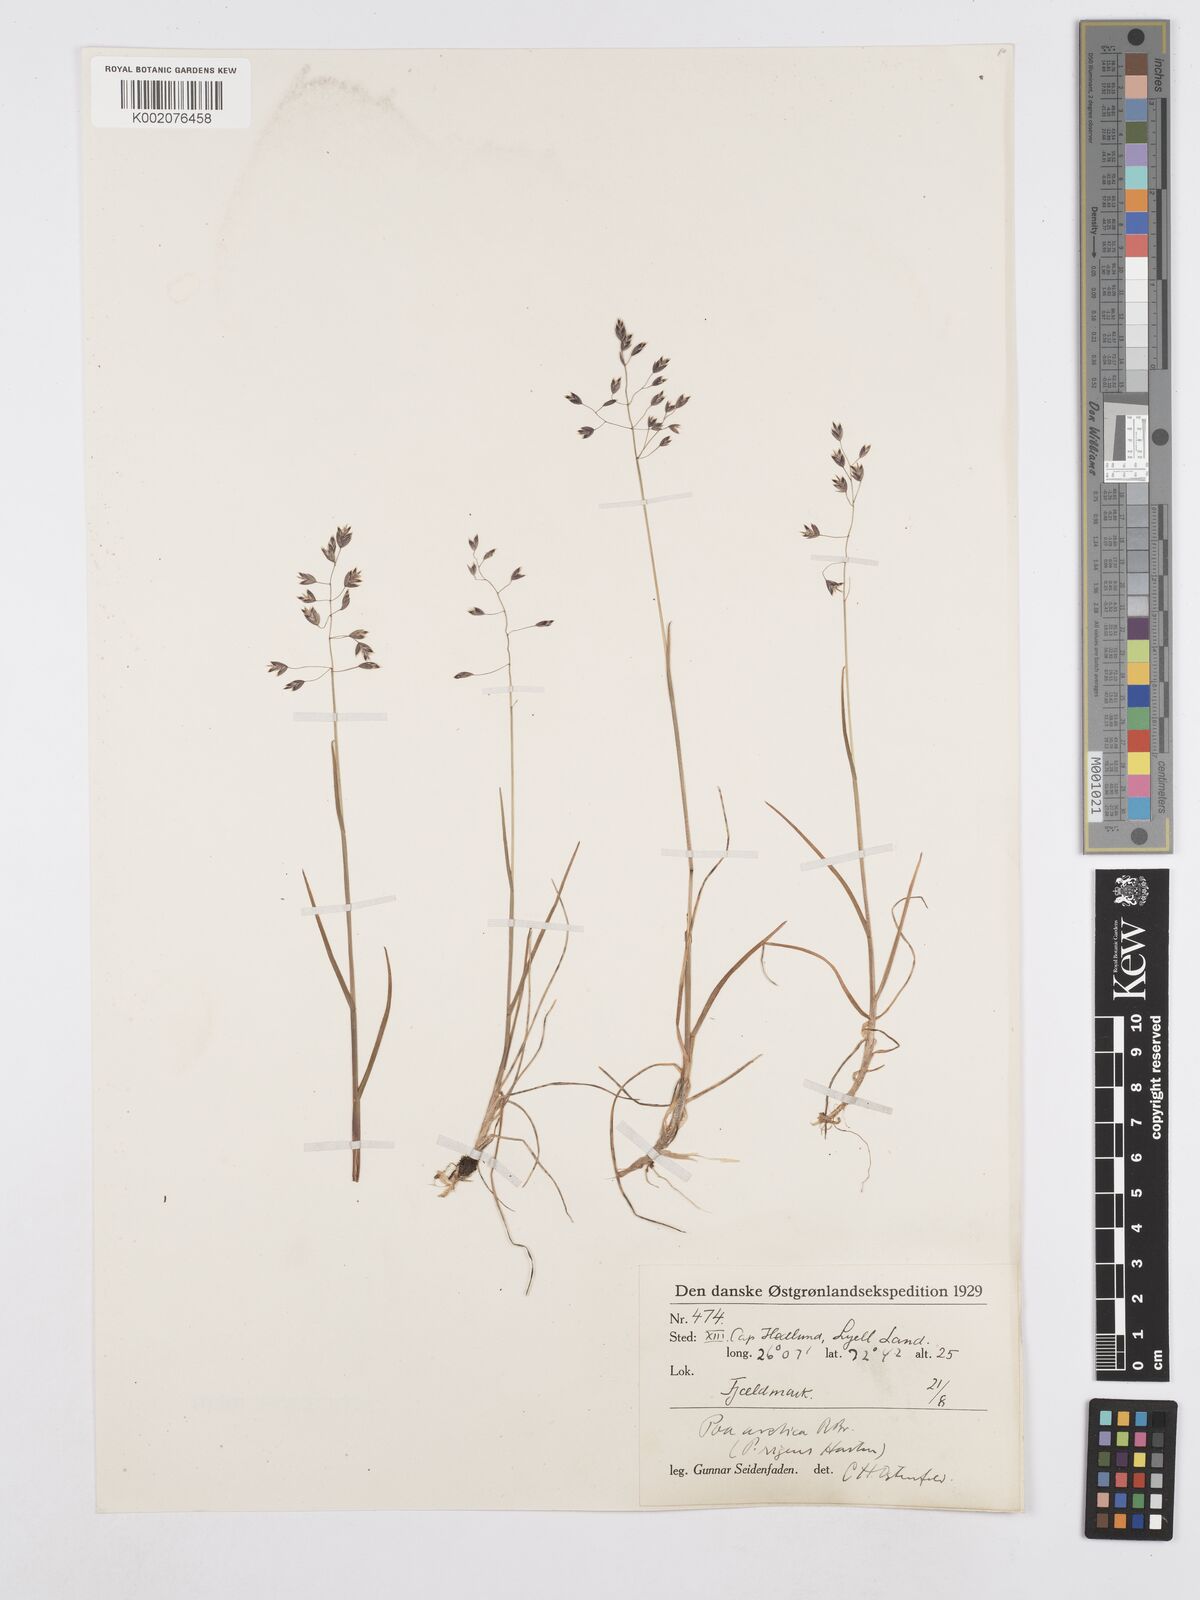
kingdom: Plantae
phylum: Tracheophyta
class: Liliopsida
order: Poales
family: Poaceae
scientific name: Poaceae
